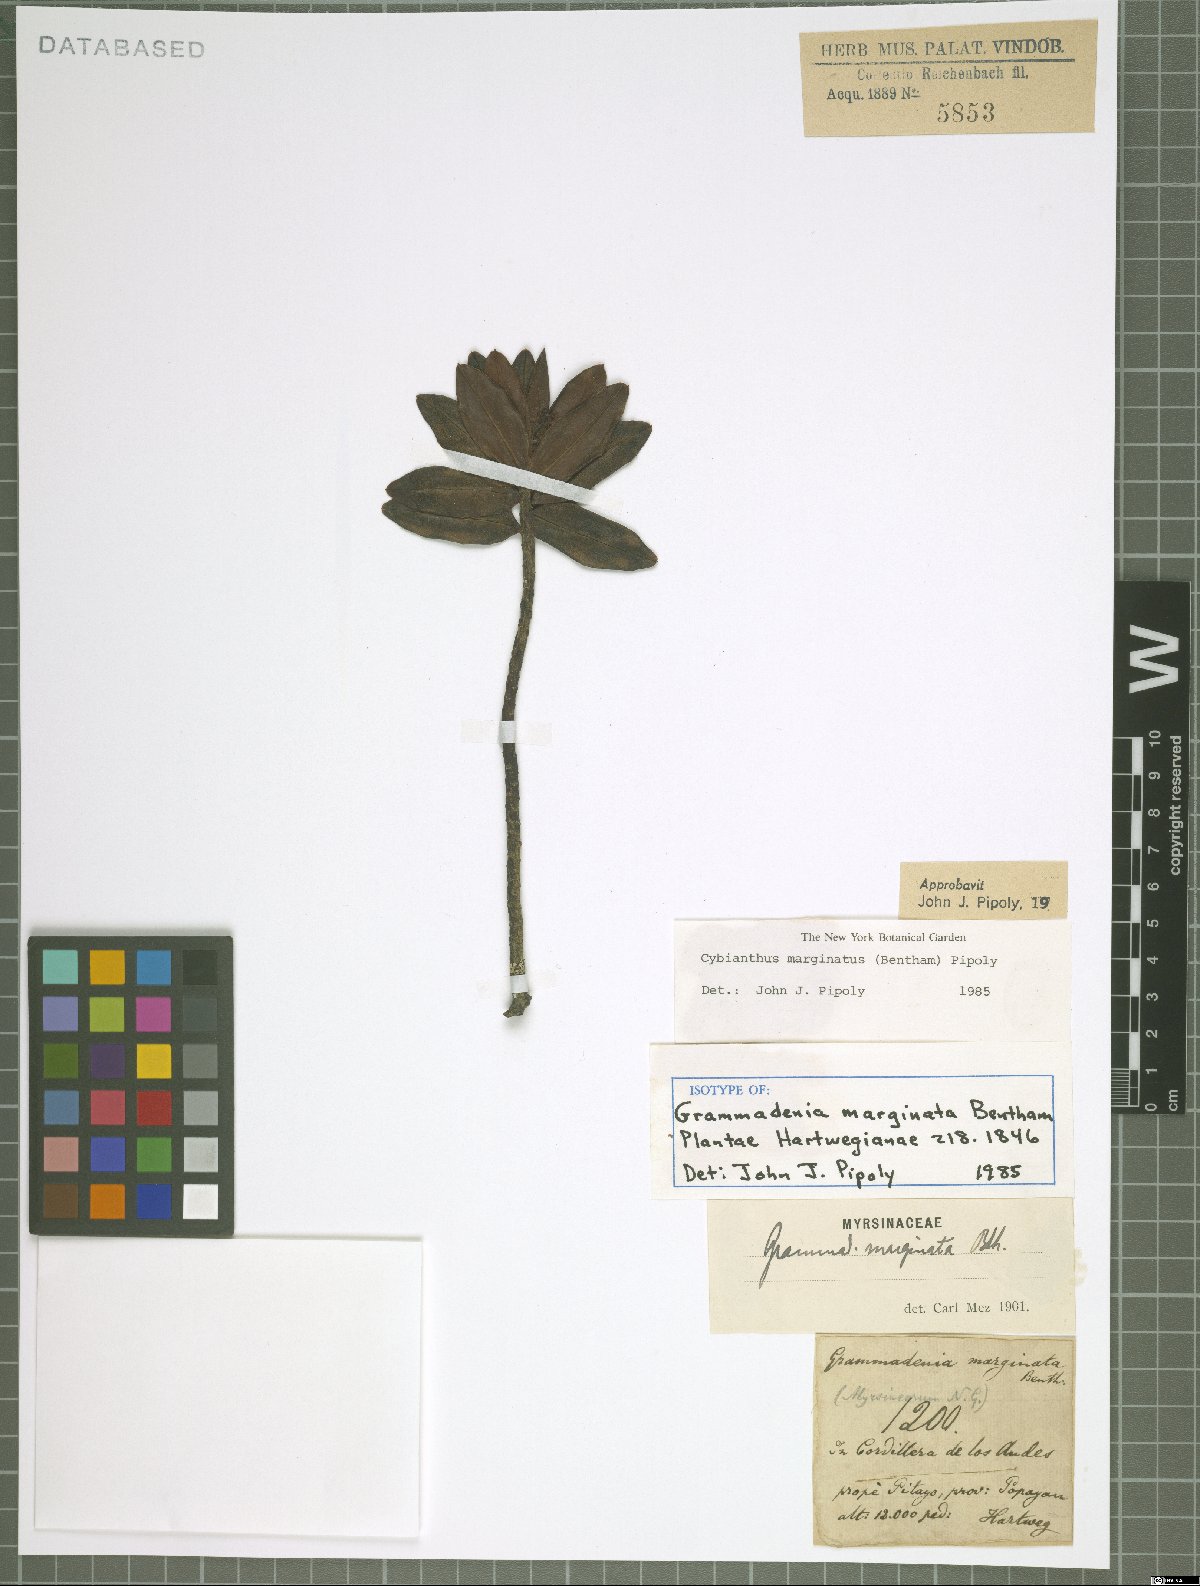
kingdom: Plantae
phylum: Tracheophyta
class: Magnoliopsida
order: Ericales
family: Primulaceae
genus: Cybianthus
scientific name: Cybianthus marginatus
